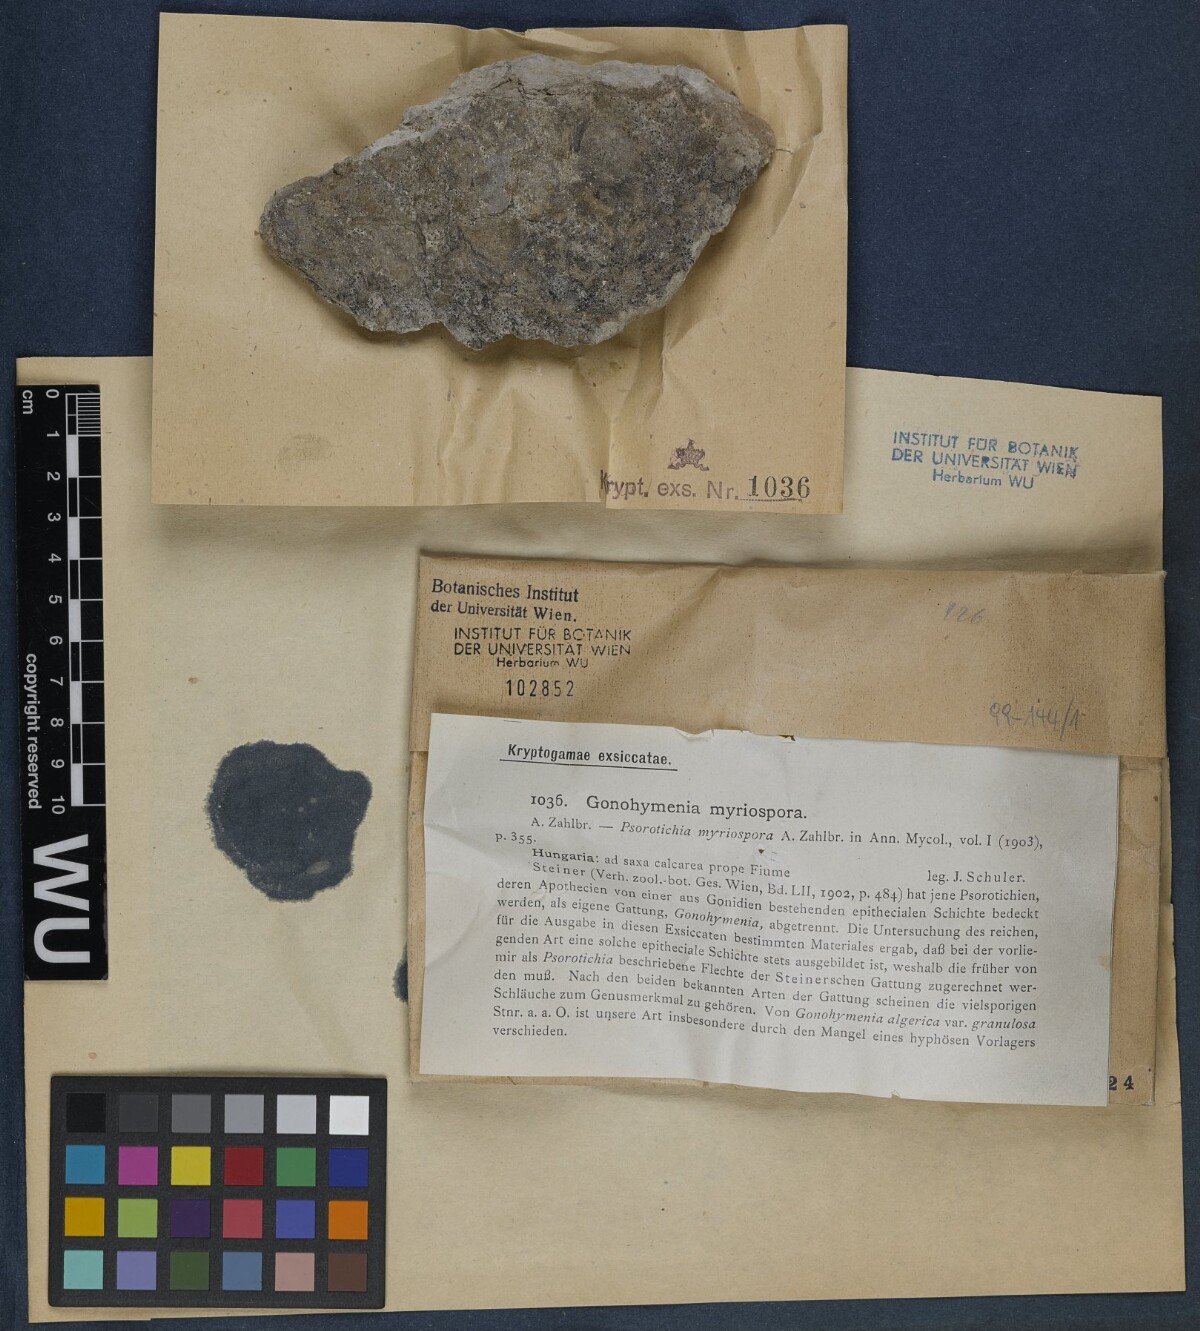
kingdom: Fungi
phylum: Ascomycota
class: Lichinomycetes
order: Lichinales
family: Lichinaceae
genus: Lichinella
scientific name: Lichinella myriospora
